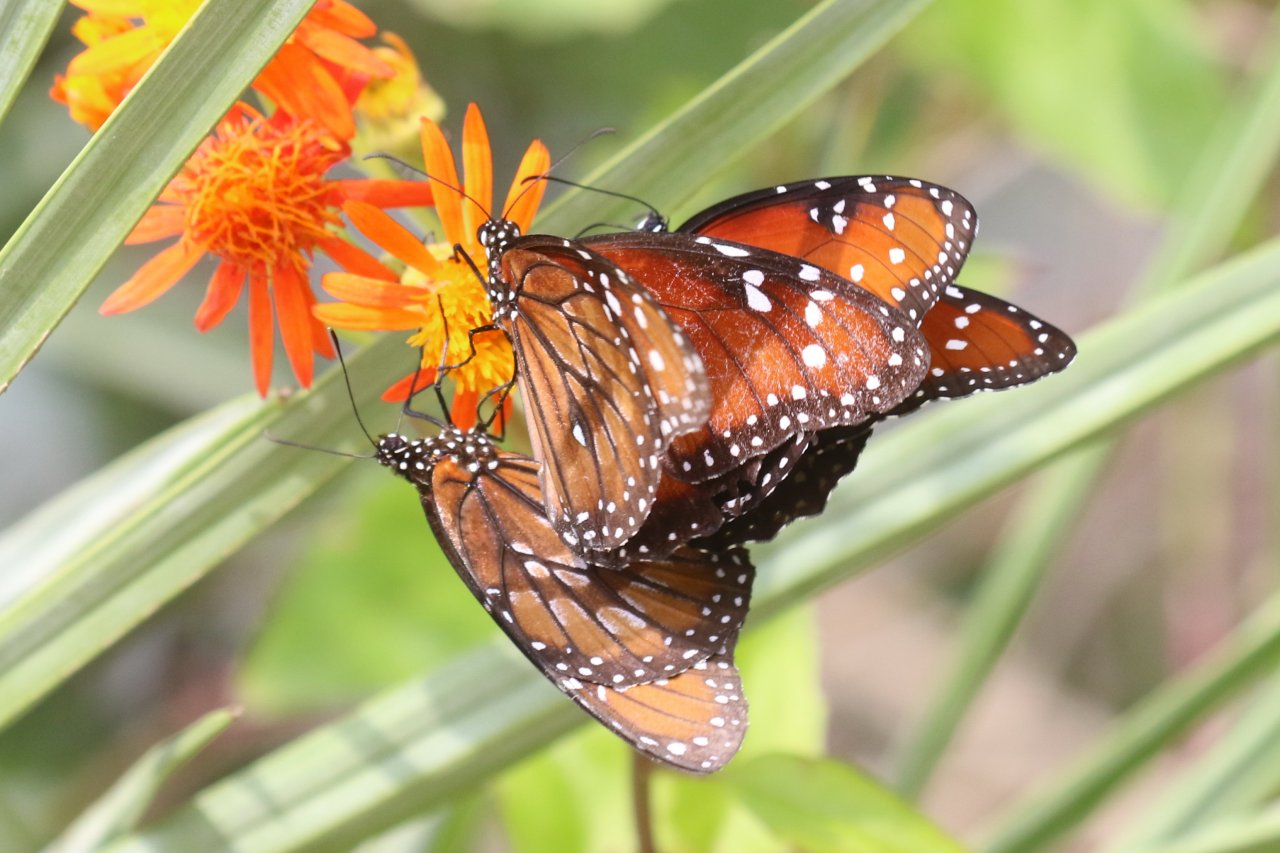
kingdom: Animalia
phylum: Arthropoda
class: Insecta
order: Lepidoptera
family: Nymphalidae
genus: Danaus
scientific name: Danaus eresimus
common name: Soldier
